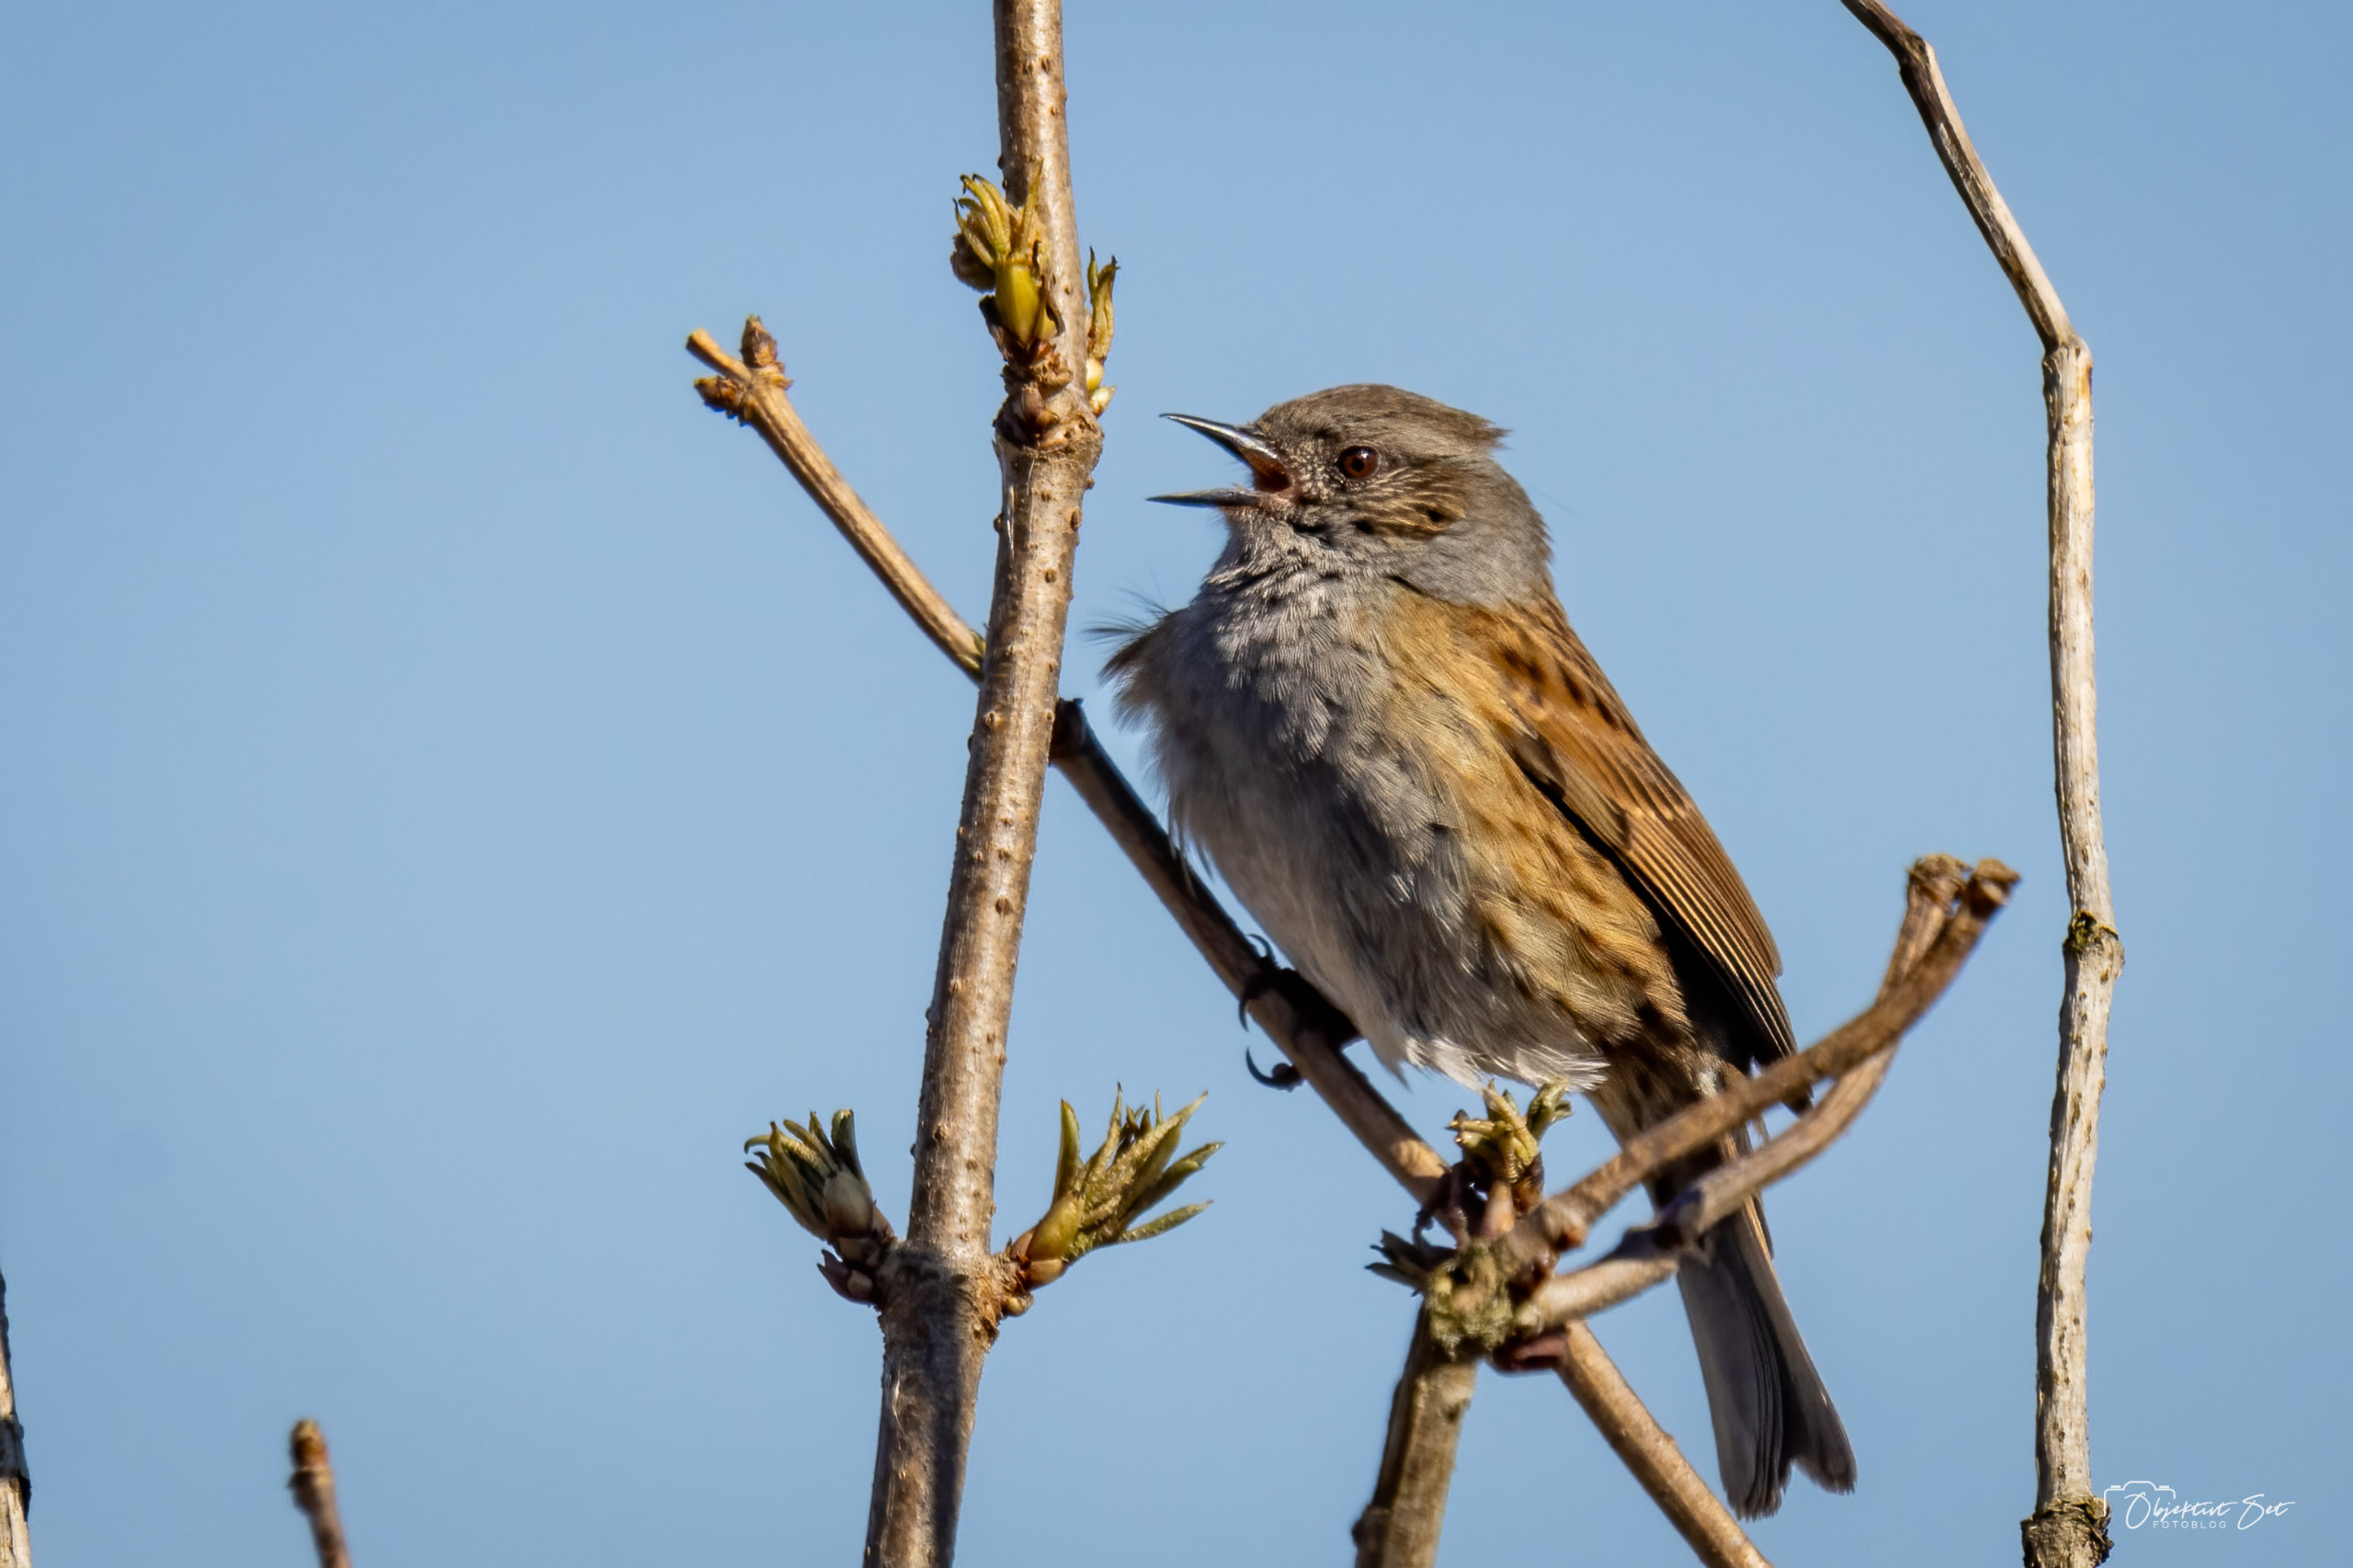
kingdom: Animalia
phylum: Chordata
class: Aves
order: Passeriformes
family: Prunellidae
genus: Prunella
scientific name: Prunella modularis
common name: Jernspurv
